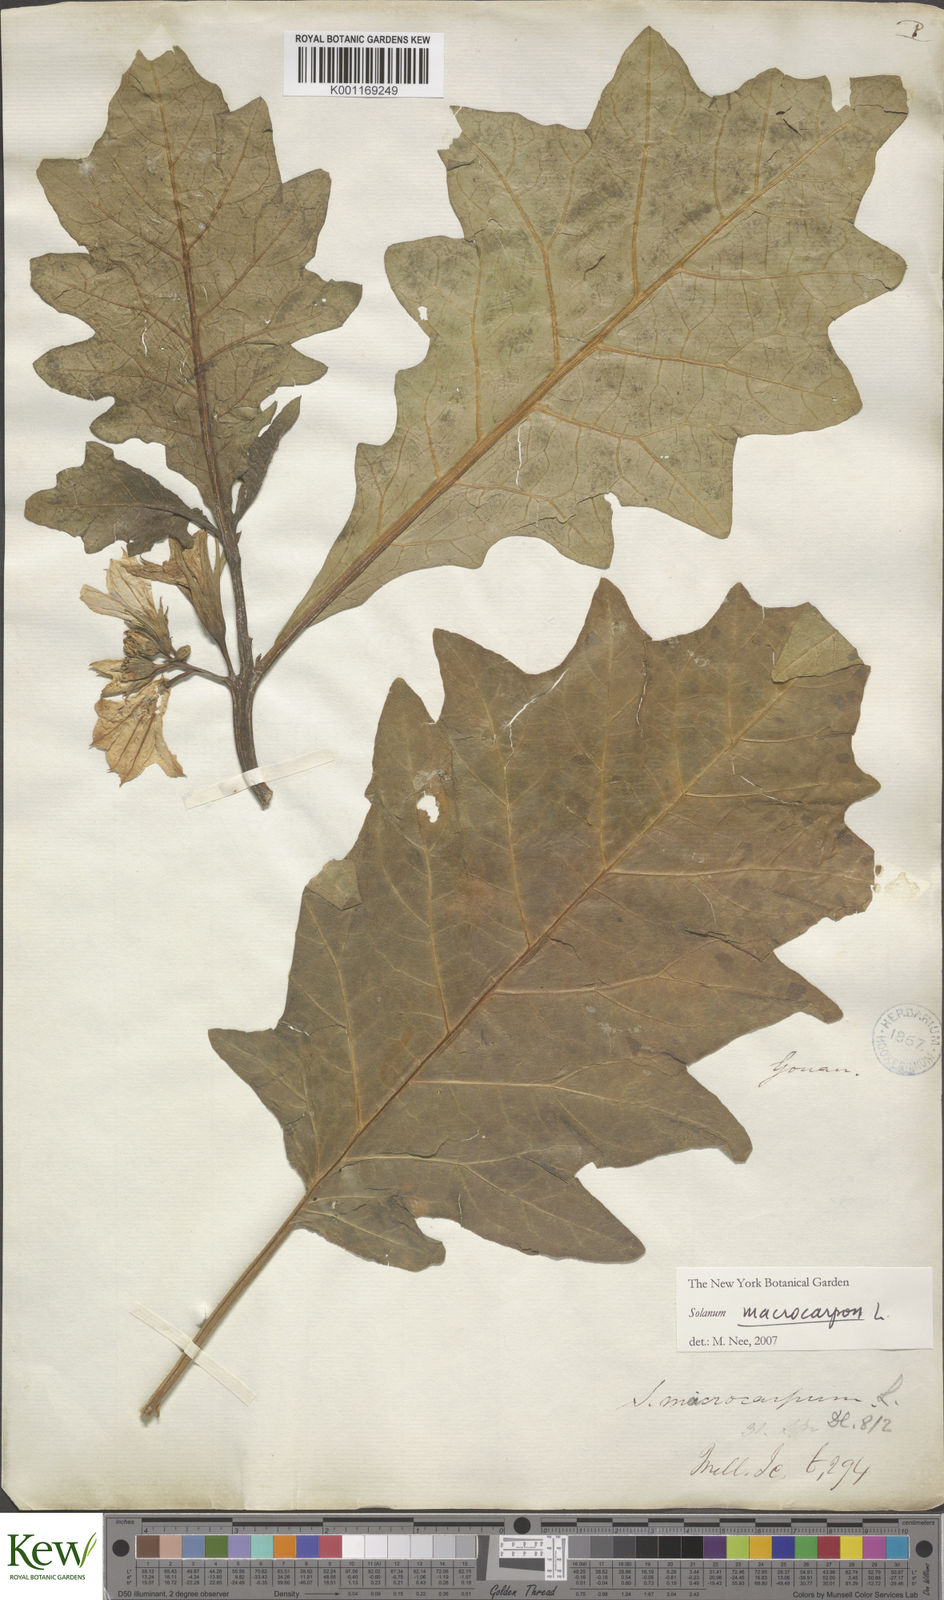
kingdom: Plantae
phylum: Tracheophyta
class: Magnoliopsida
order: Solanales
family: Solanaceae
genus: Solanum
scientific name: Solanum macrocarpon
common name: African eggplant
